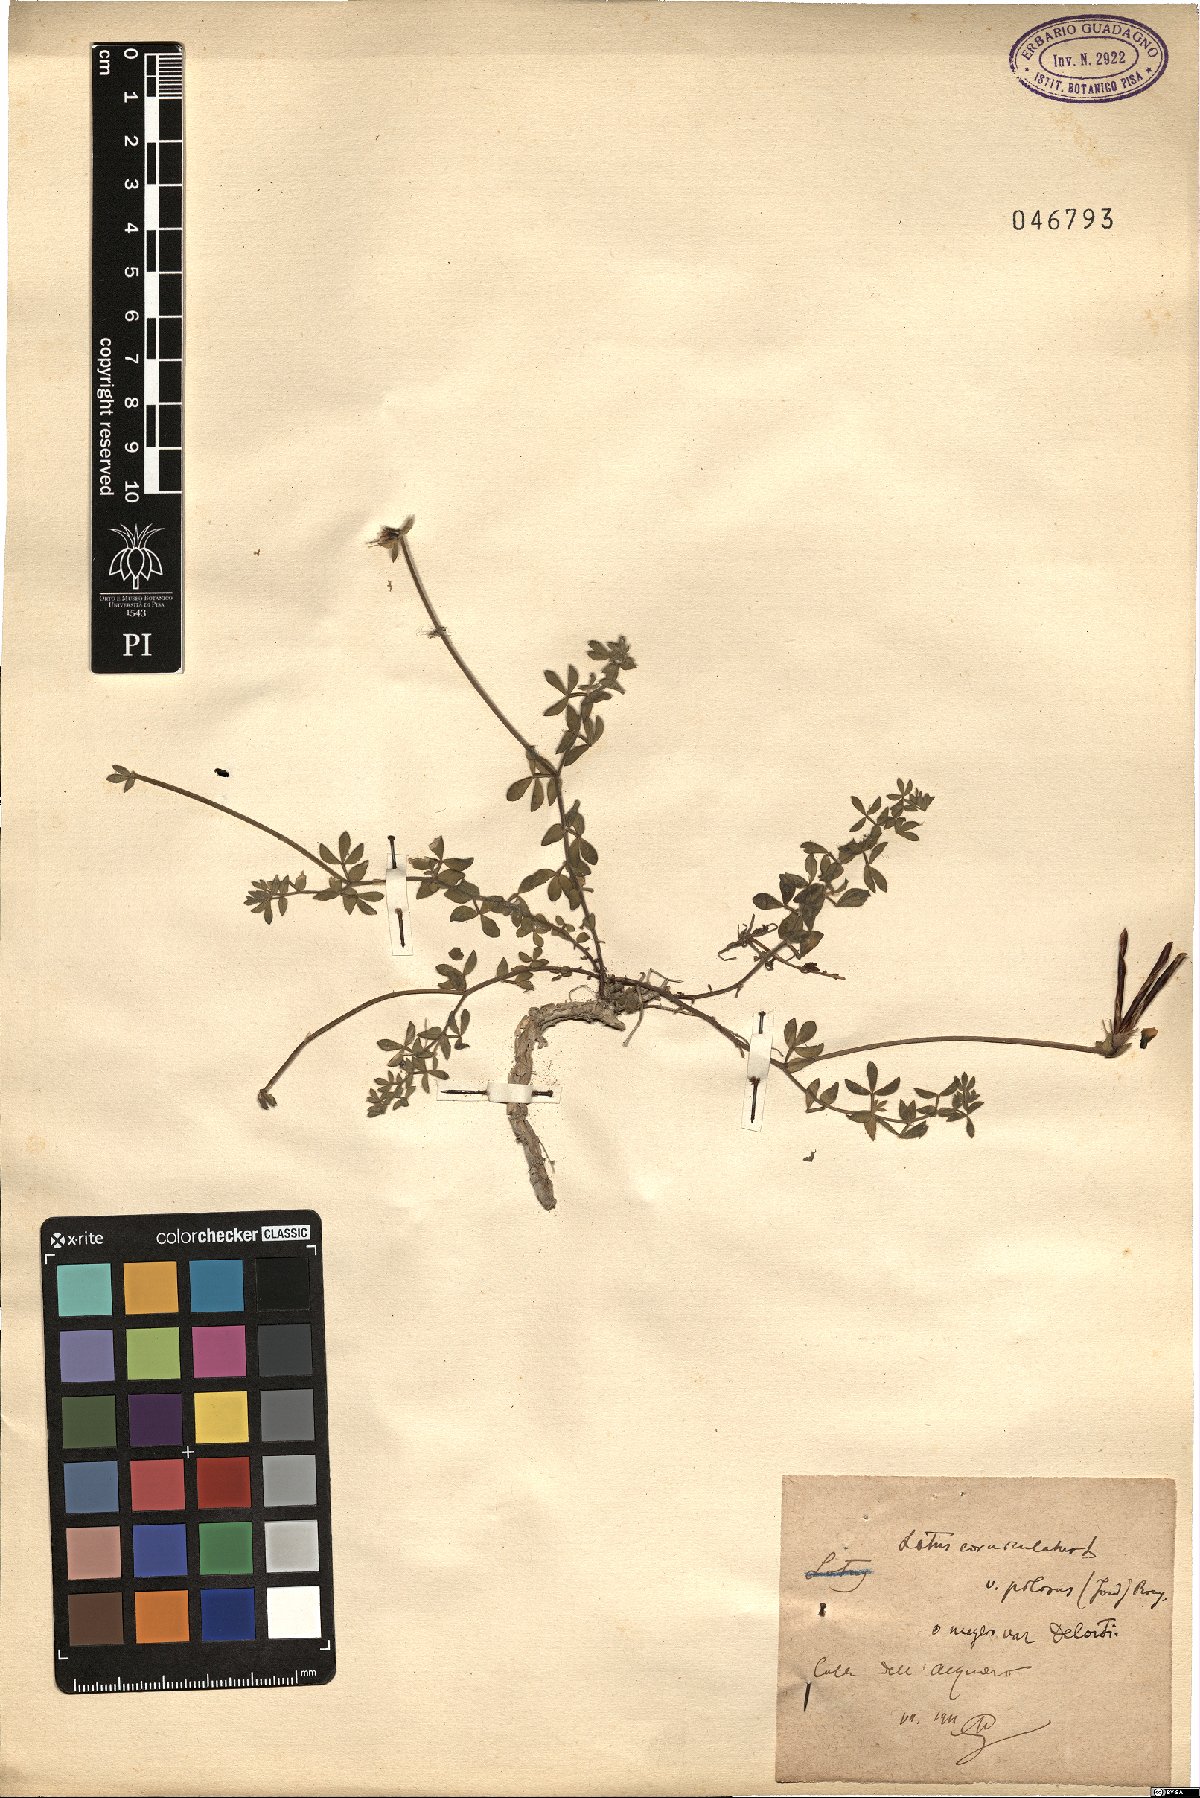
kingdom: Plantae
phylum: Tracheophyta
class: Magnoliopsida
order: Fabales
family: Fabaceae
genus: Lotus
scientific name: Lotus corniculatus
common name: Common bird's-foot-trefoil
